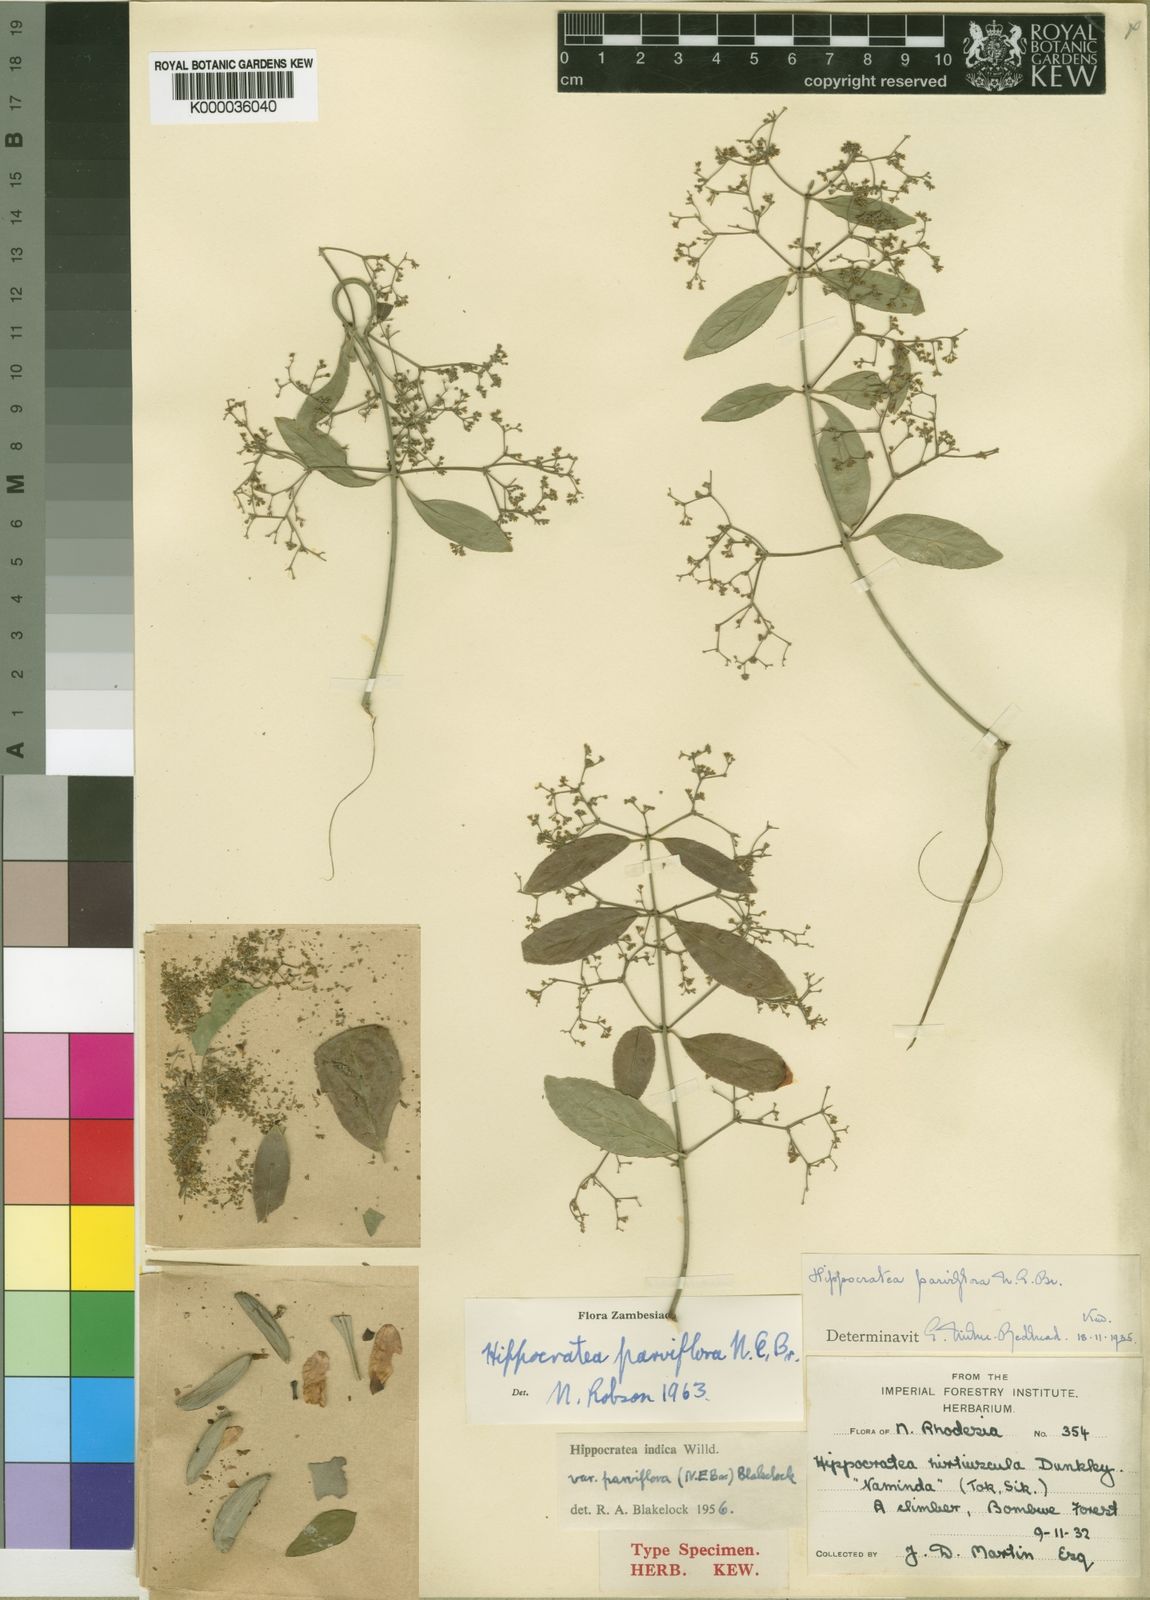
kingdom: Plantae
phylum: Tracheophyta
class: Magnoliopsida
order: Celastrales
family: Celastraceae
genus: Reissantia
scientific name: Reissantia parviflora
